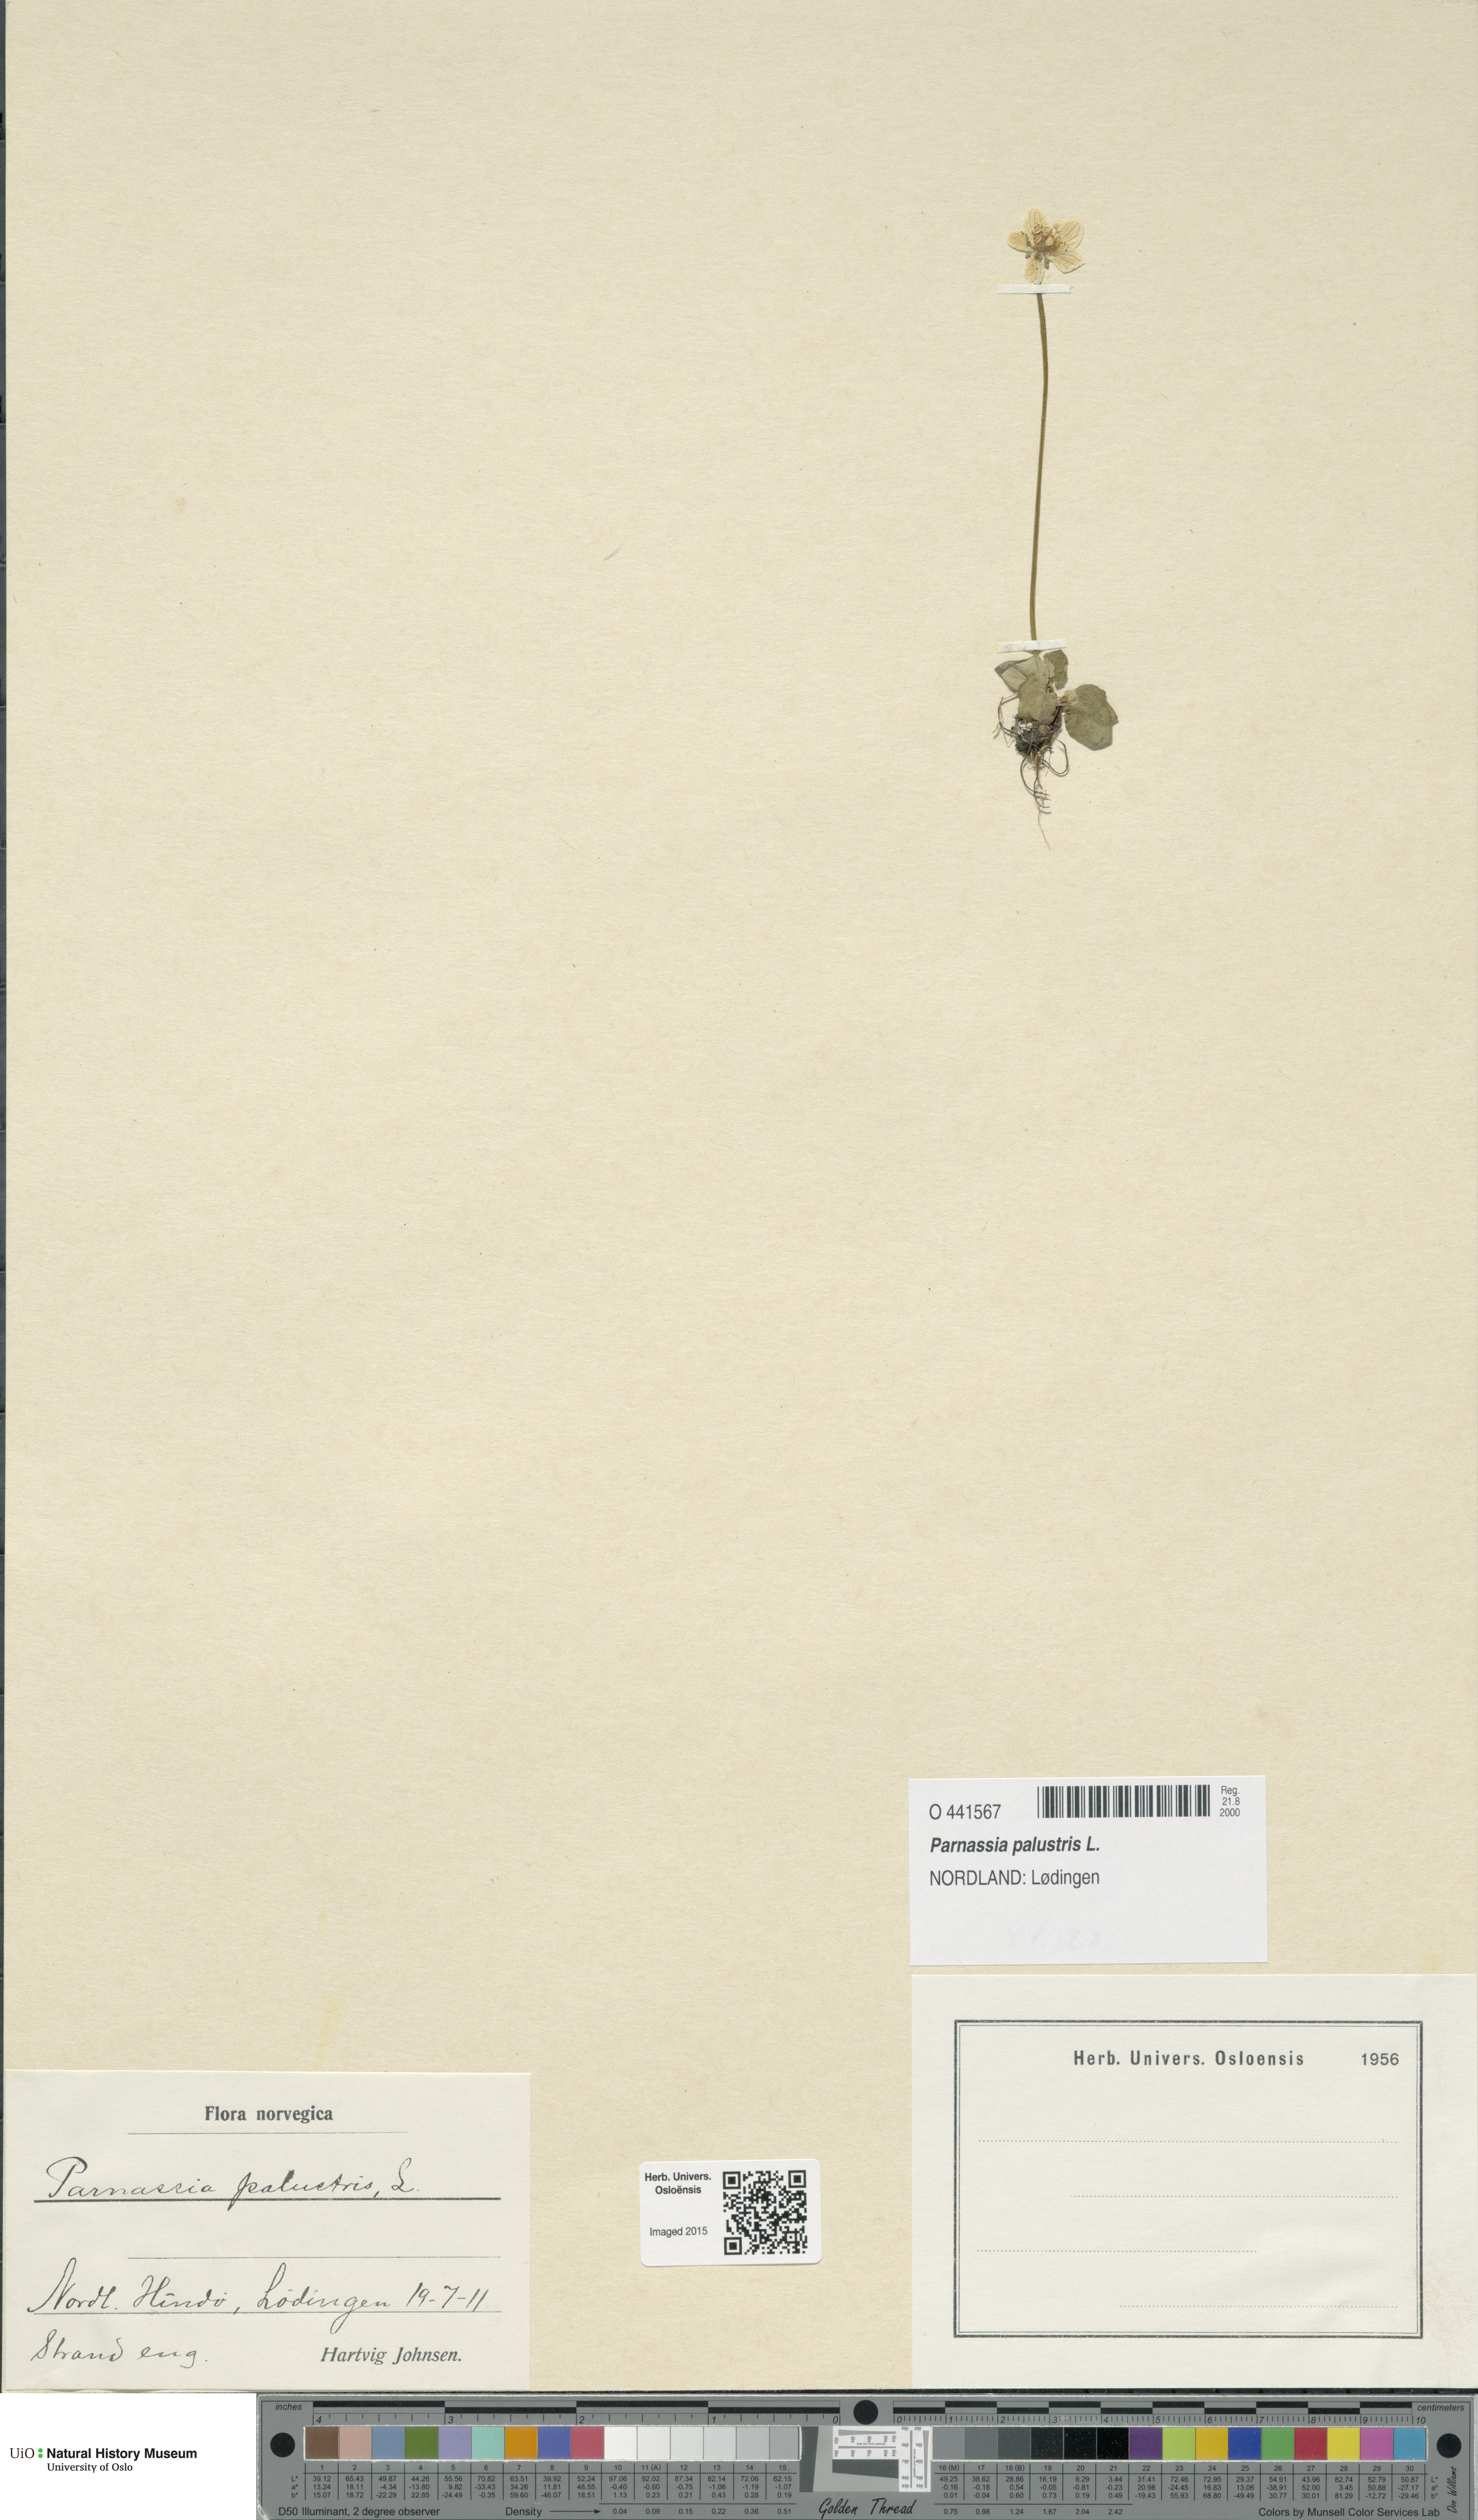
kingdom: Plantae
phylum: Tracheophyta
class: Magnoliopsida
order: Celastrales
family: Parnassiaceae
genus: Parnassia
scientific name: Parnassia palustris
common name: Grass-of-parnassus
